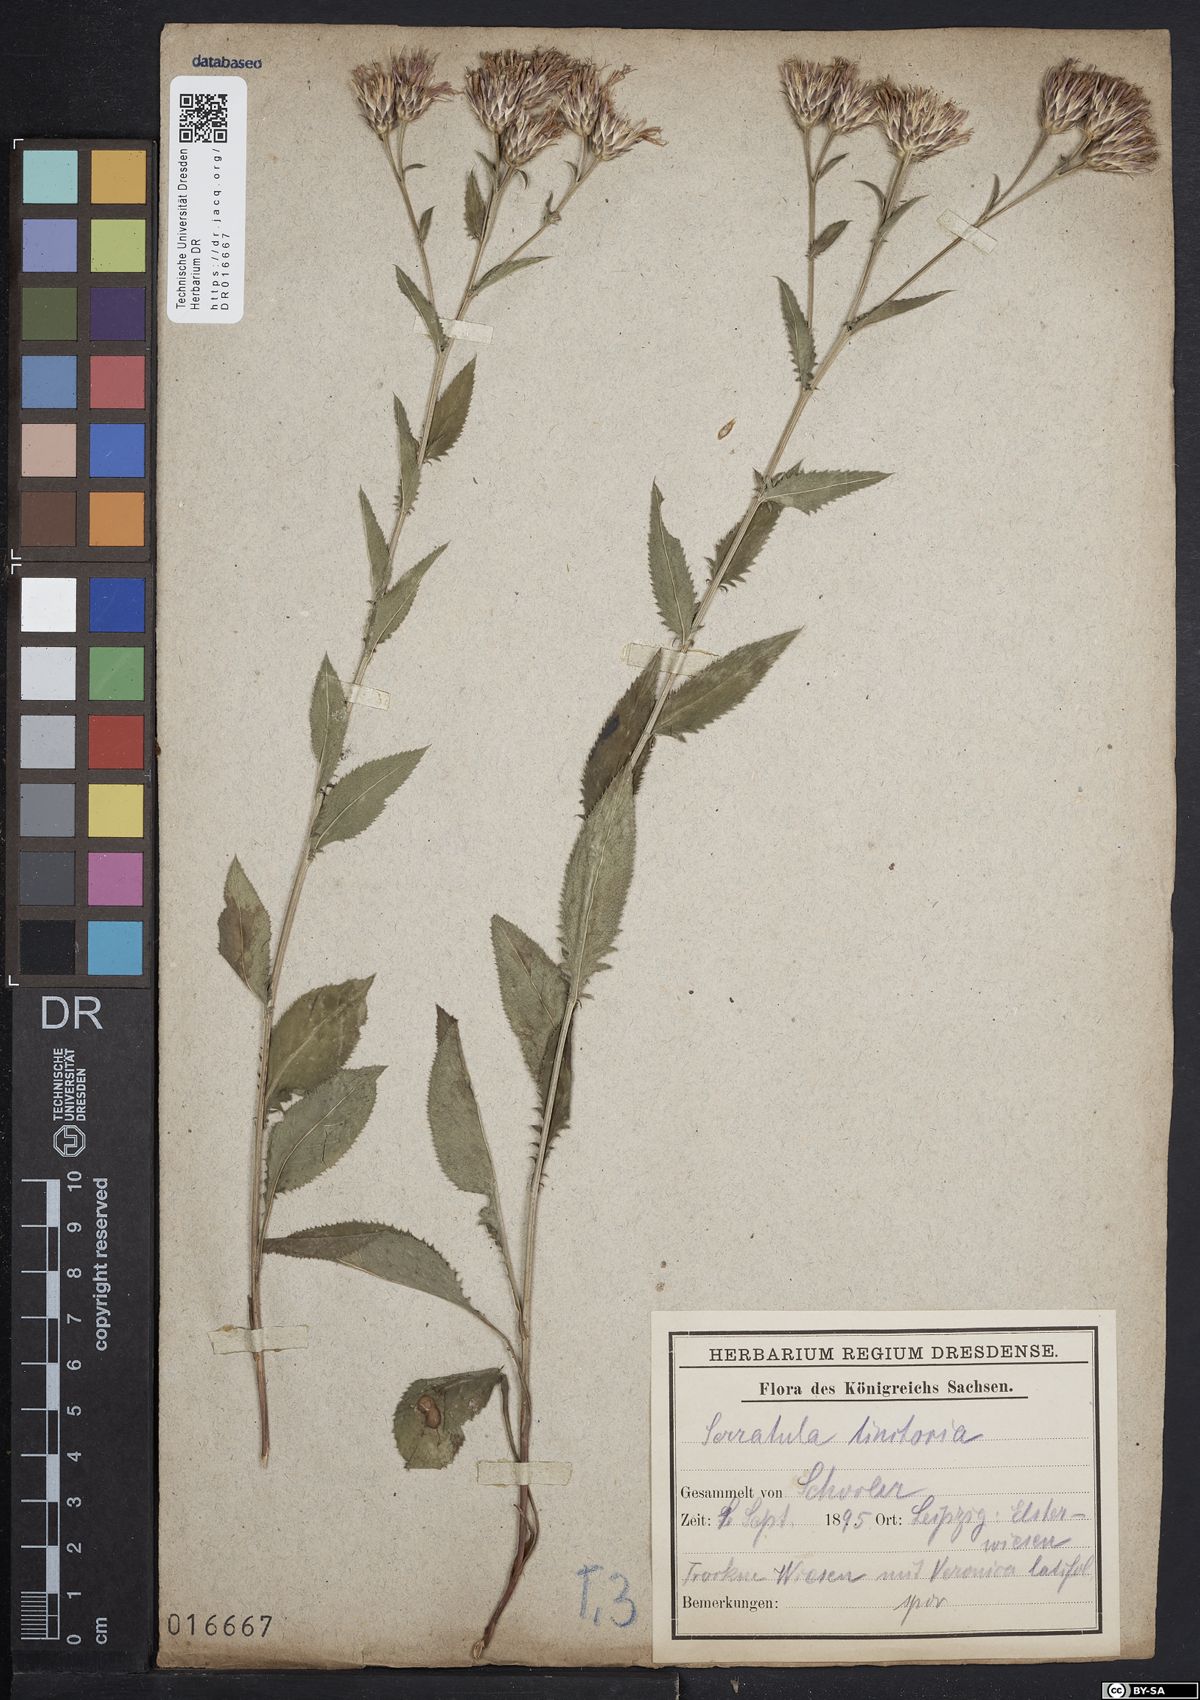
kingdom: Plantae
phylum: Tracheophyta
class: Magnoliopsida
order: Asterales
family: Asteraceae
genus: Serratula
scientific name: Serratula tinctoria
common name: Saw-wort
